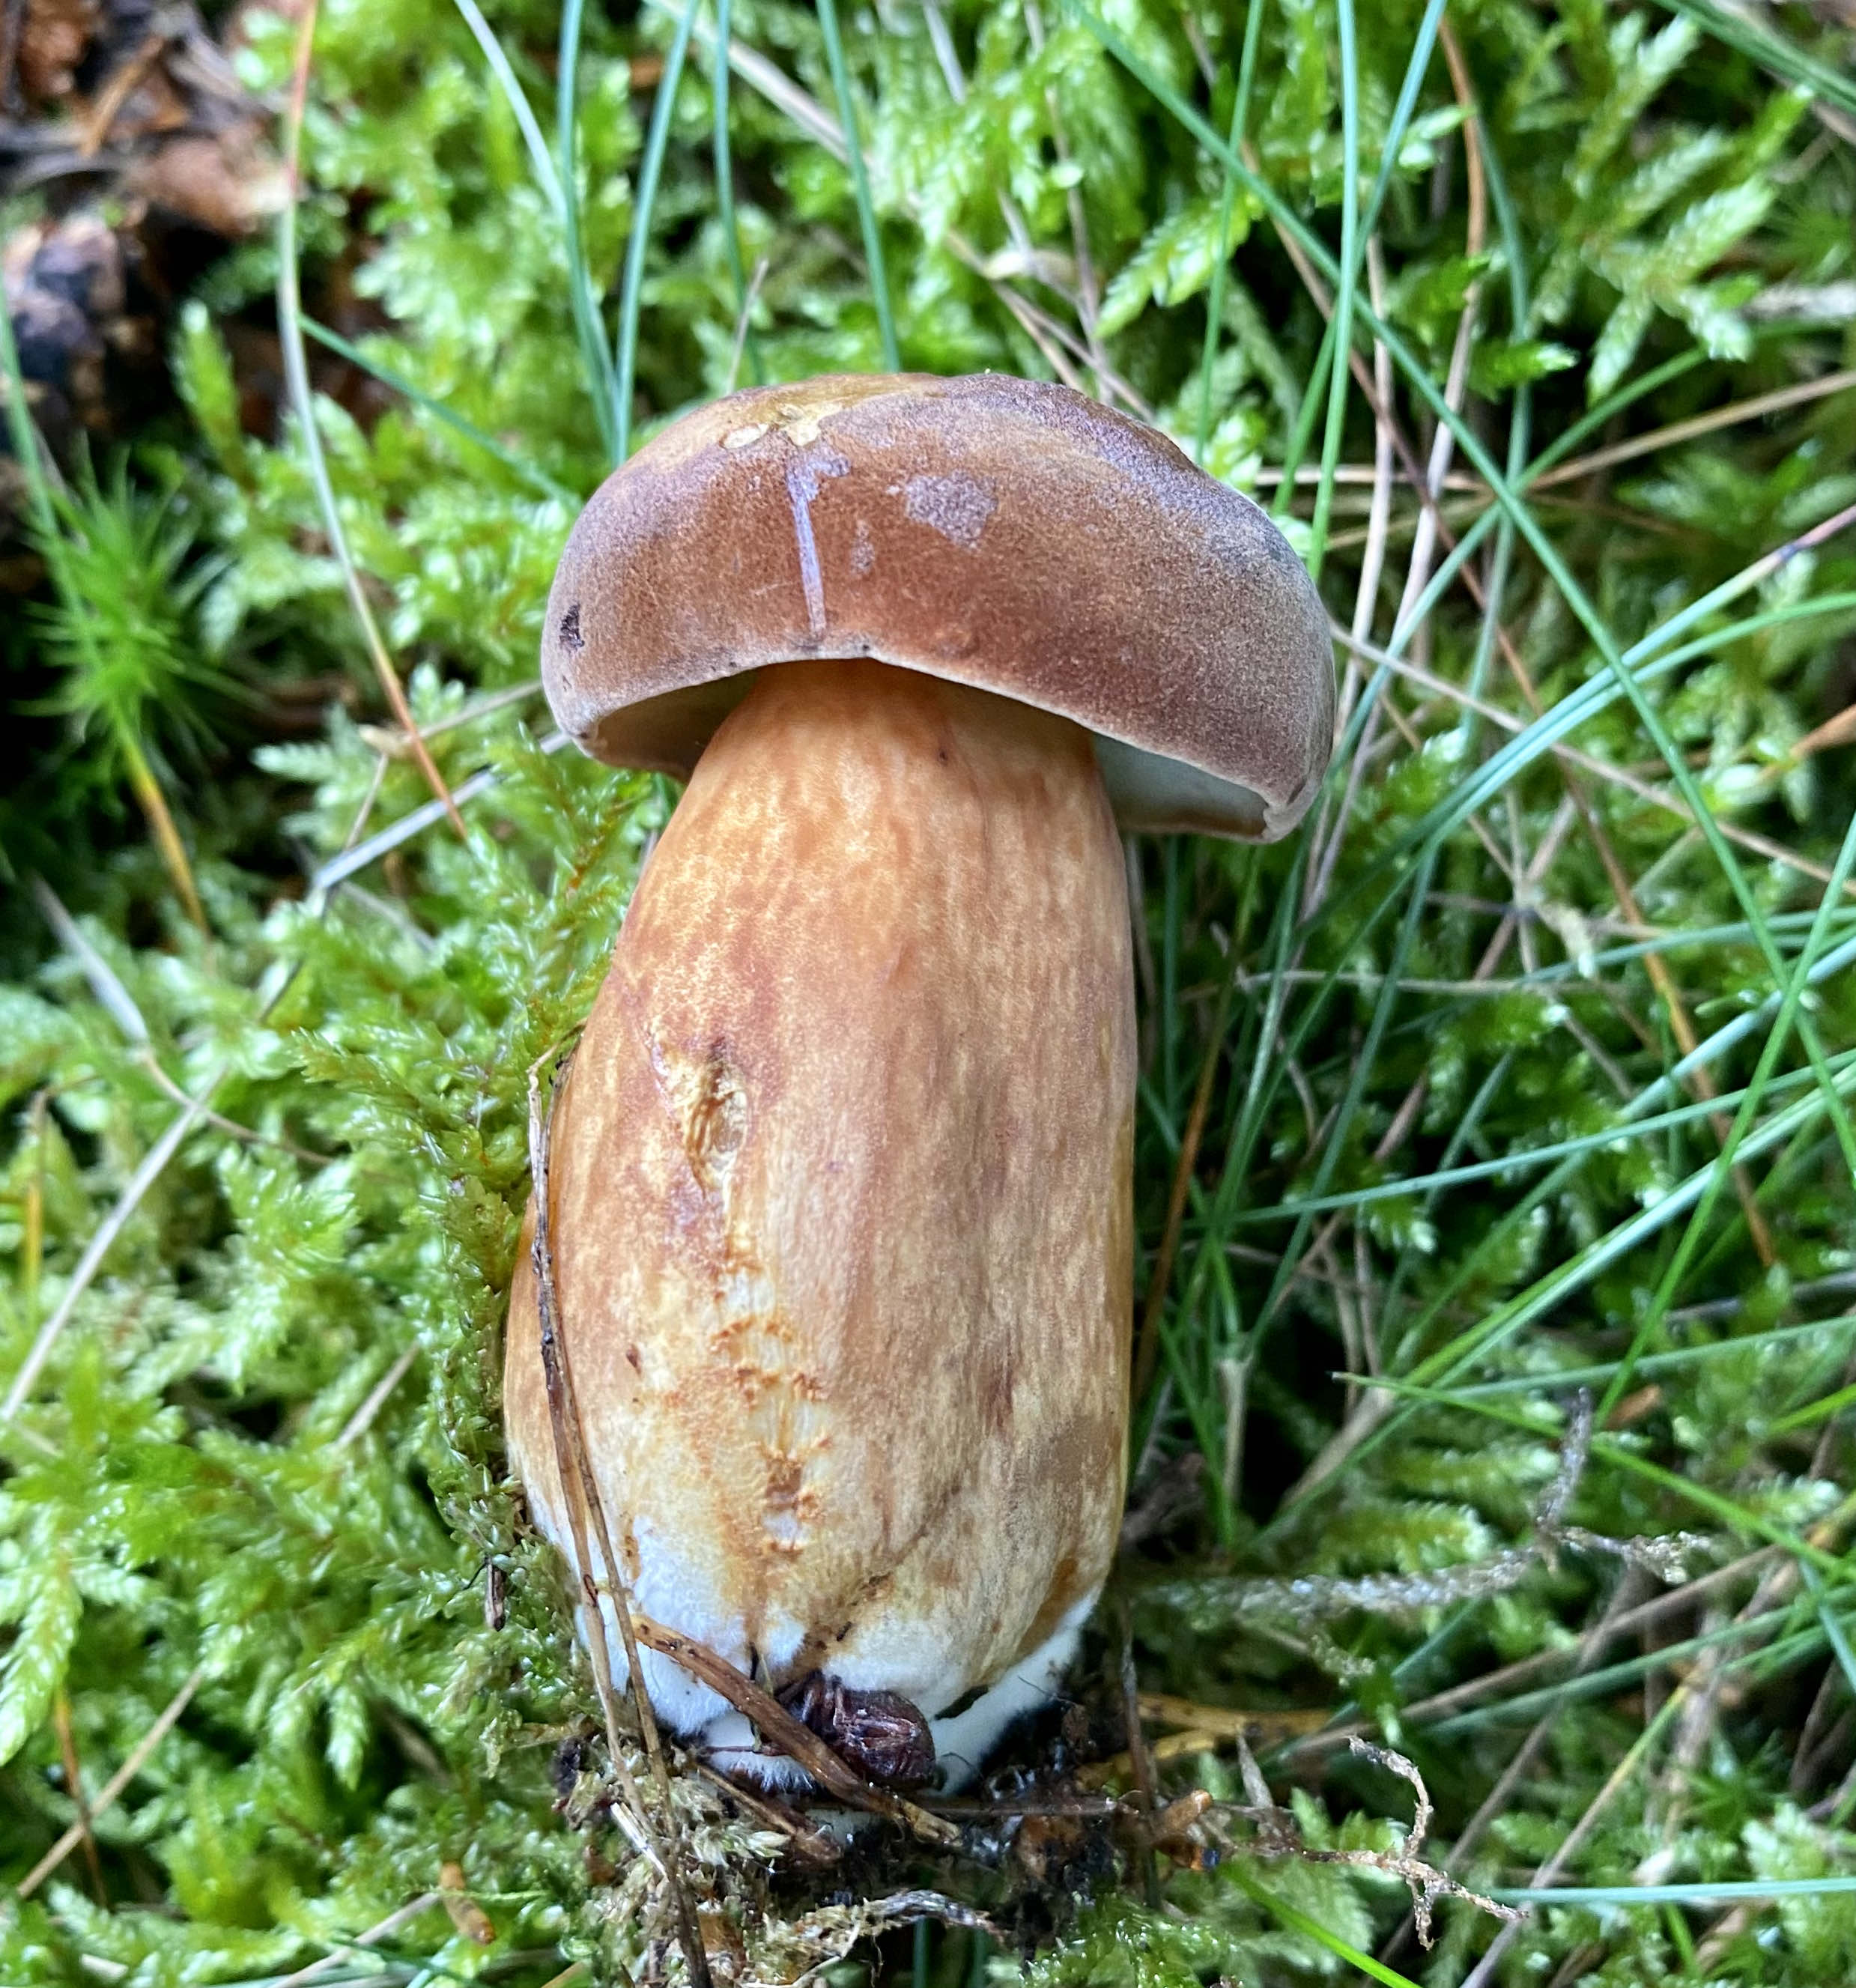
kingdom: Fungi
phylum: Basidiomycota
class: Agaricomycetes
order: Boletales
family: Boletaceae
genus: Imleria
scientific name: Imleria badia
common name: brunstokket rørhat
